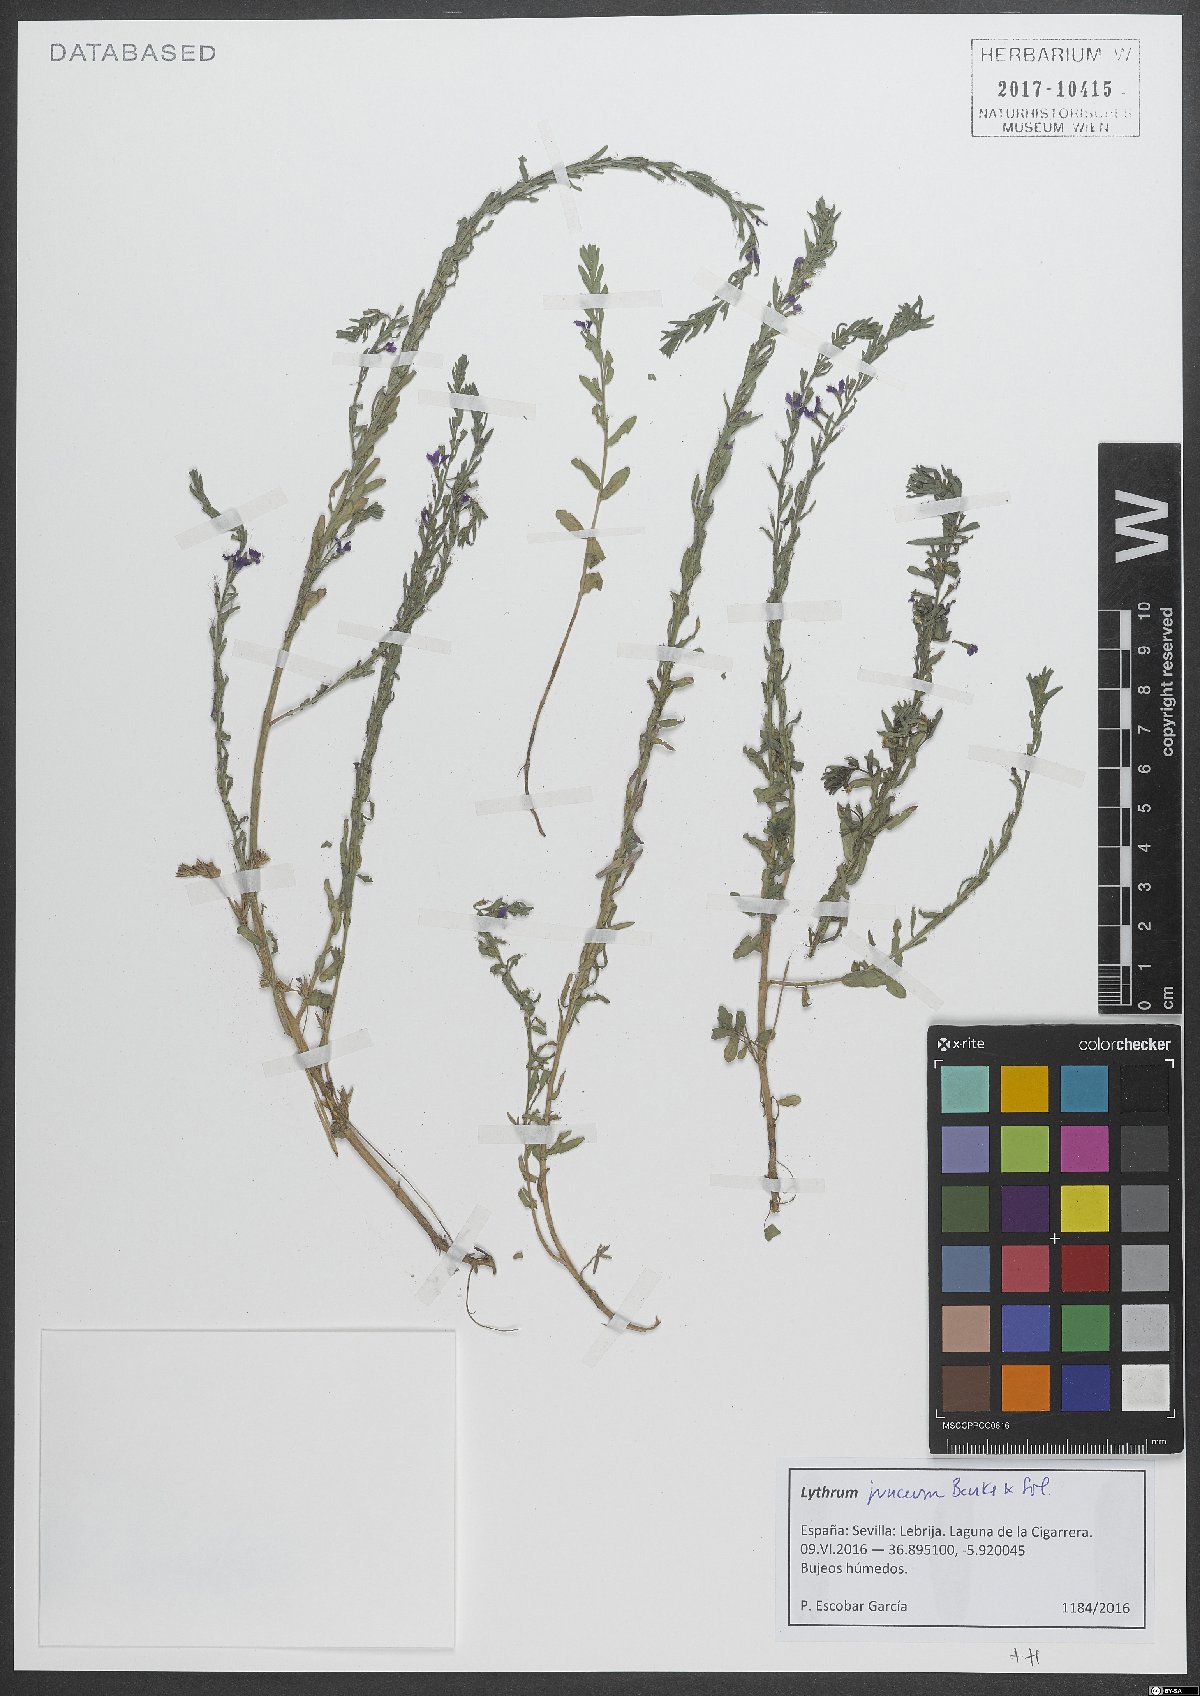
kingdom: Plantae
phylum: Tracheophyta
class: Magnoliopsida
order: Myrtales
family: Lythraceae
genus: Lythrum
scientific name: Lythrum junceum
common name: False grass-poly
